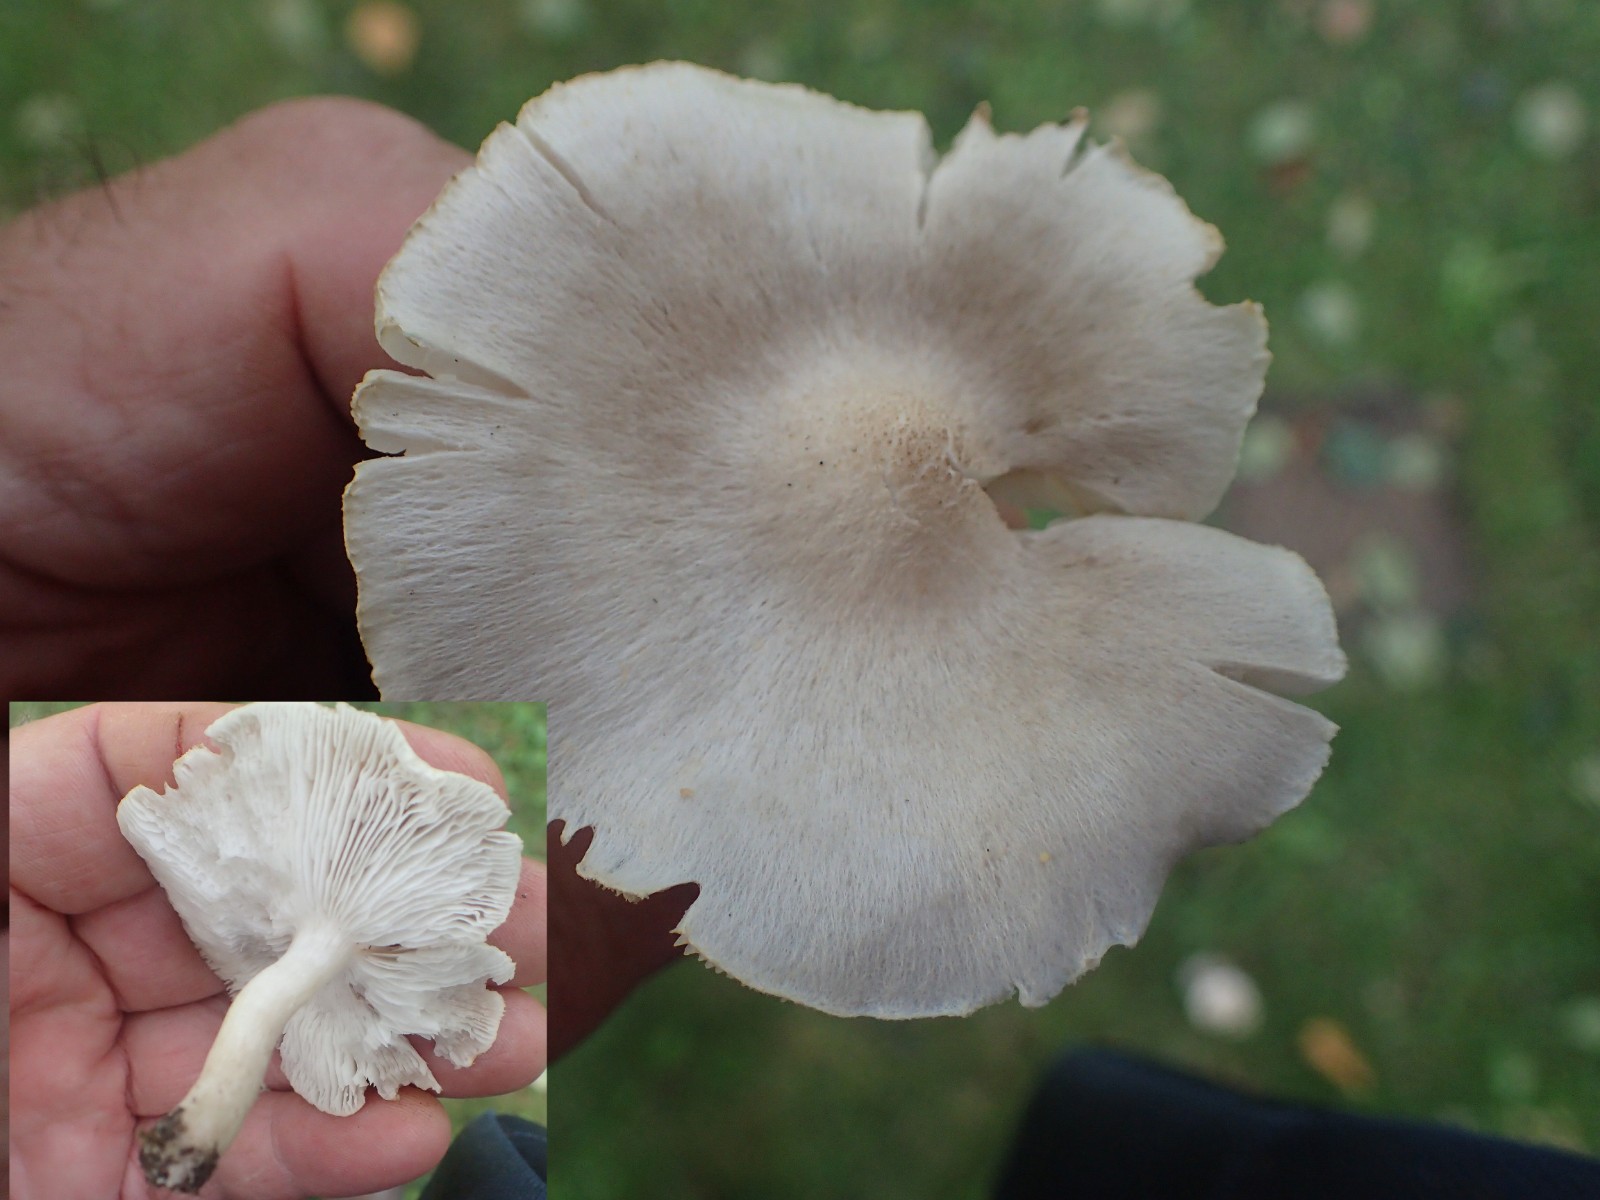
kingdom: Fungi
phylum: Basidiomycota
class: Agaricomycetes
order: Agaricales
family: Tricholomataceae
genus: Tricholoma
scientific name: Tricholoma argyraceum
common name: spids ridderhat
